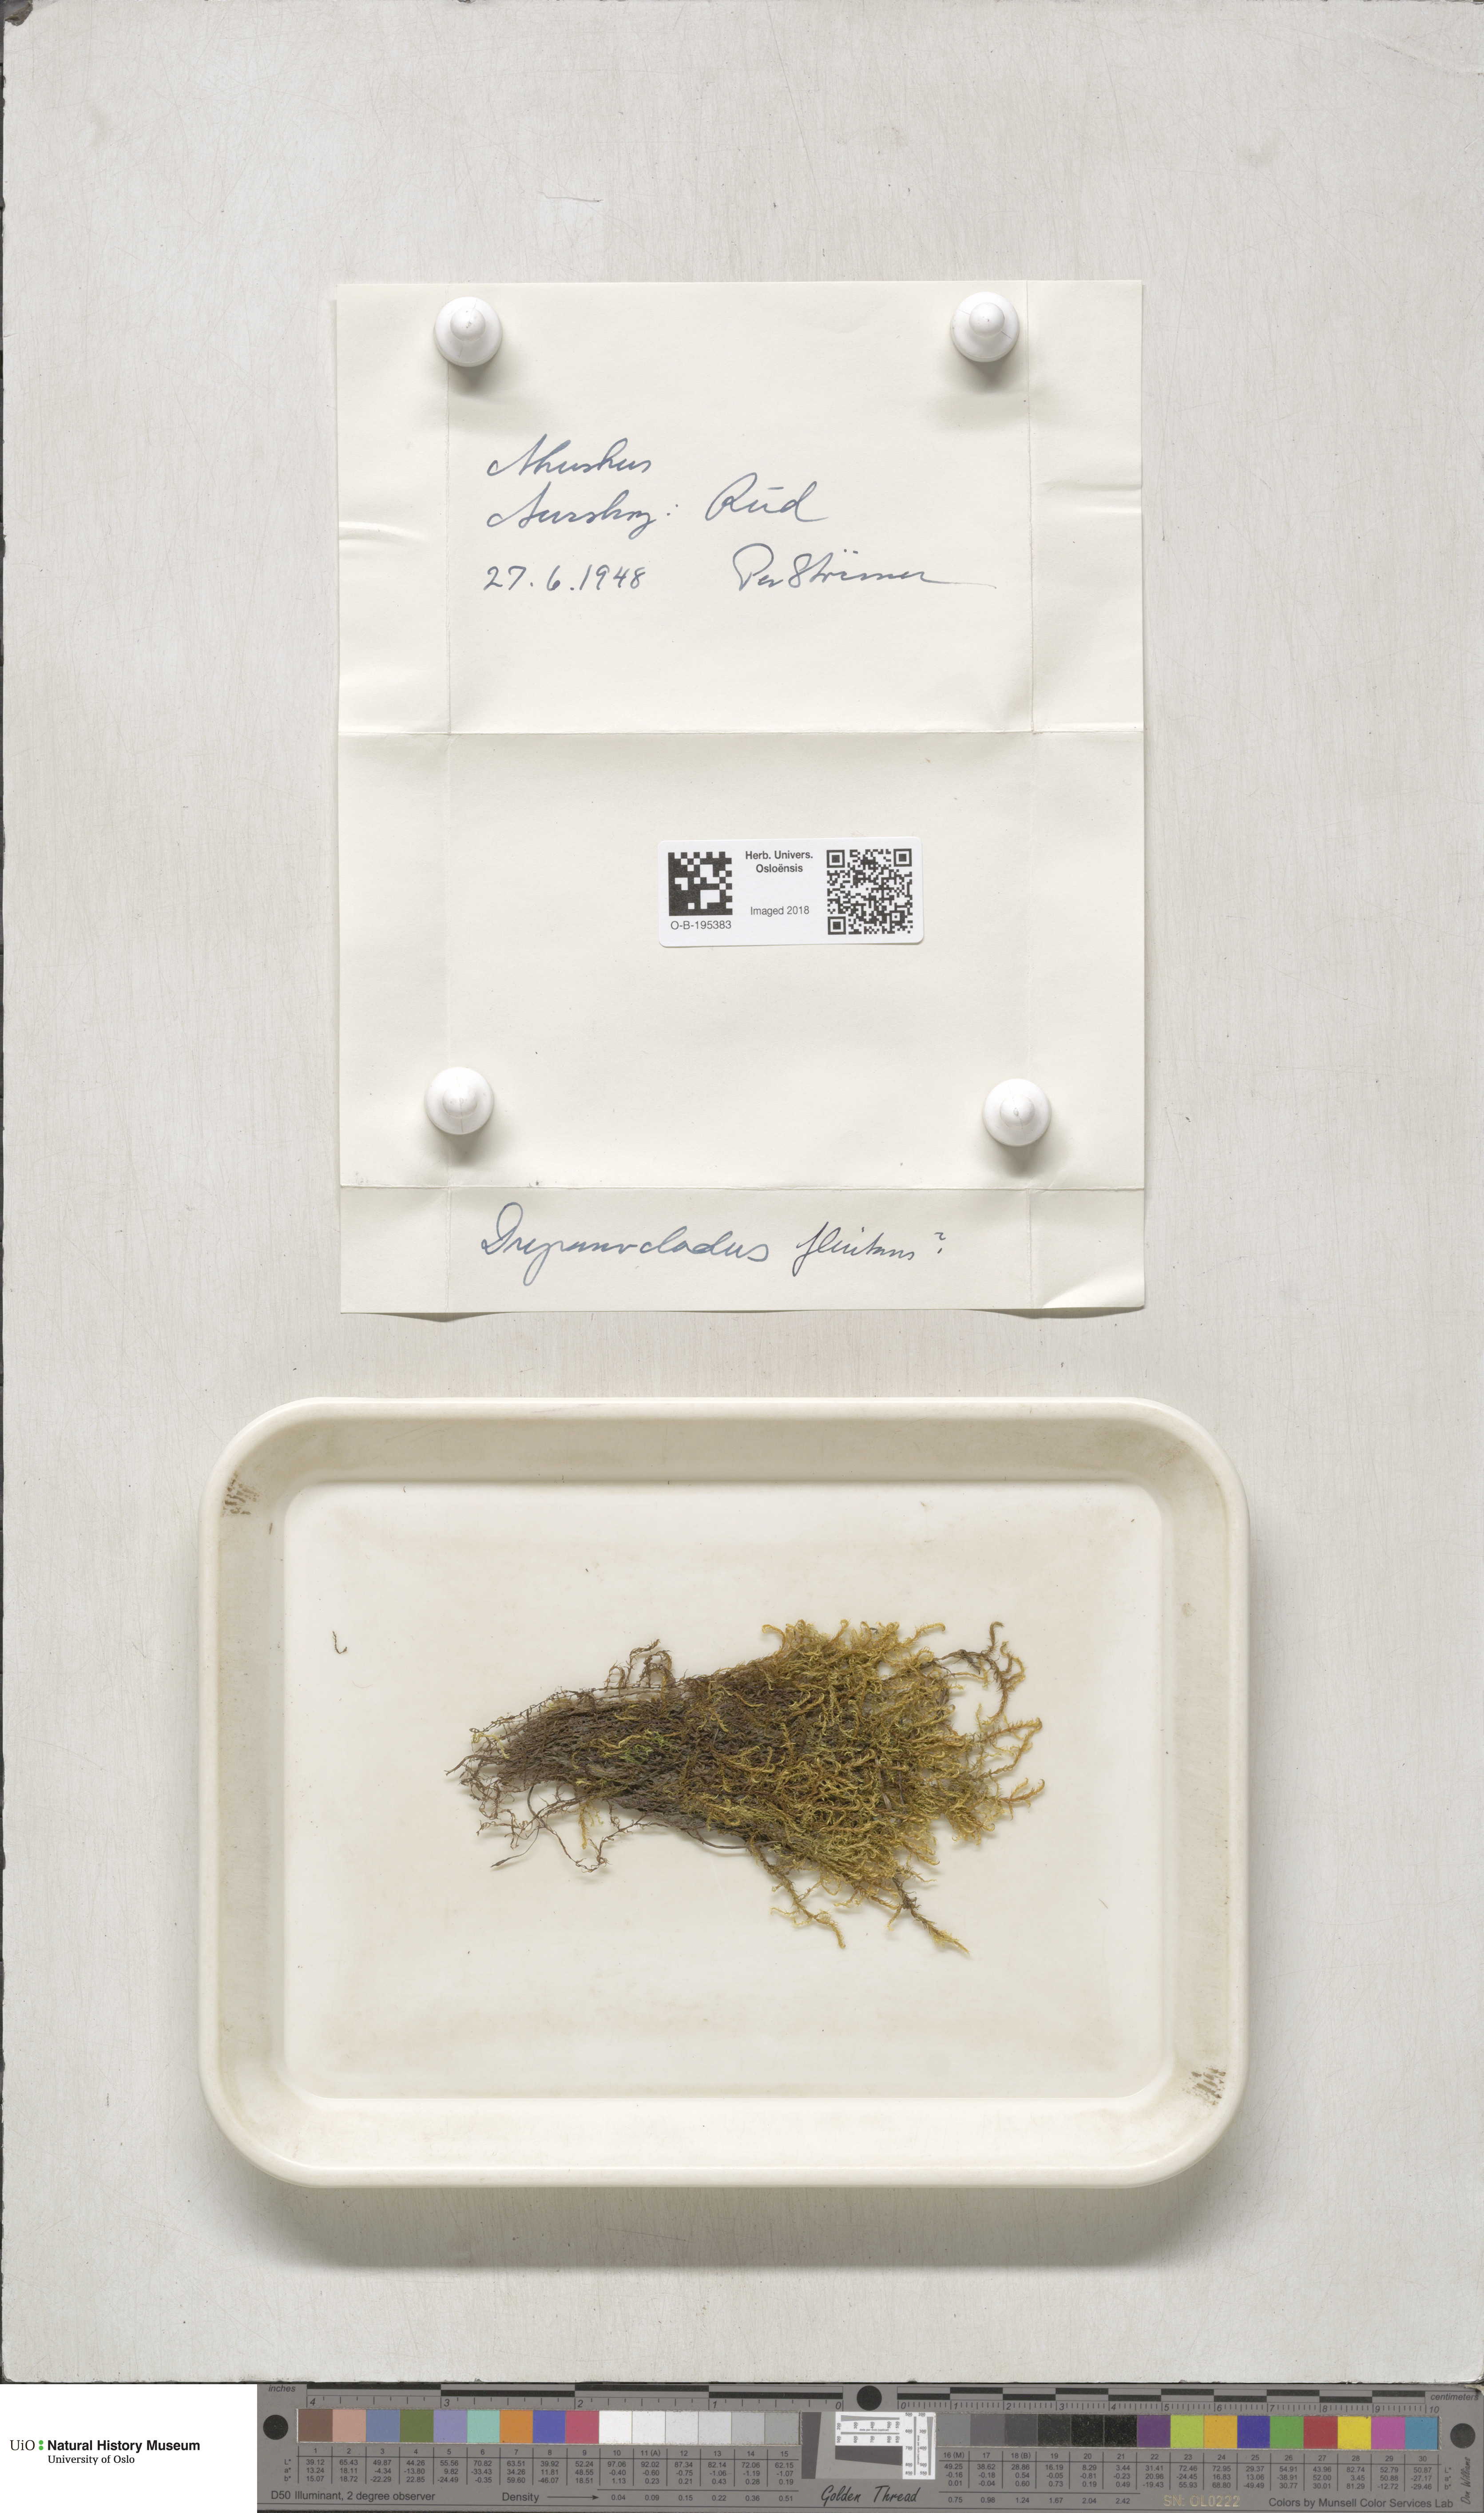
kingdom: Plantae
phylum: Bryophyta
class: Bryopsida
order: Hypnales
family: Calliergonaceae
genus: Warnstorfia
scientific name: Warnstorfia fluitans
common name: Floating hook moss
